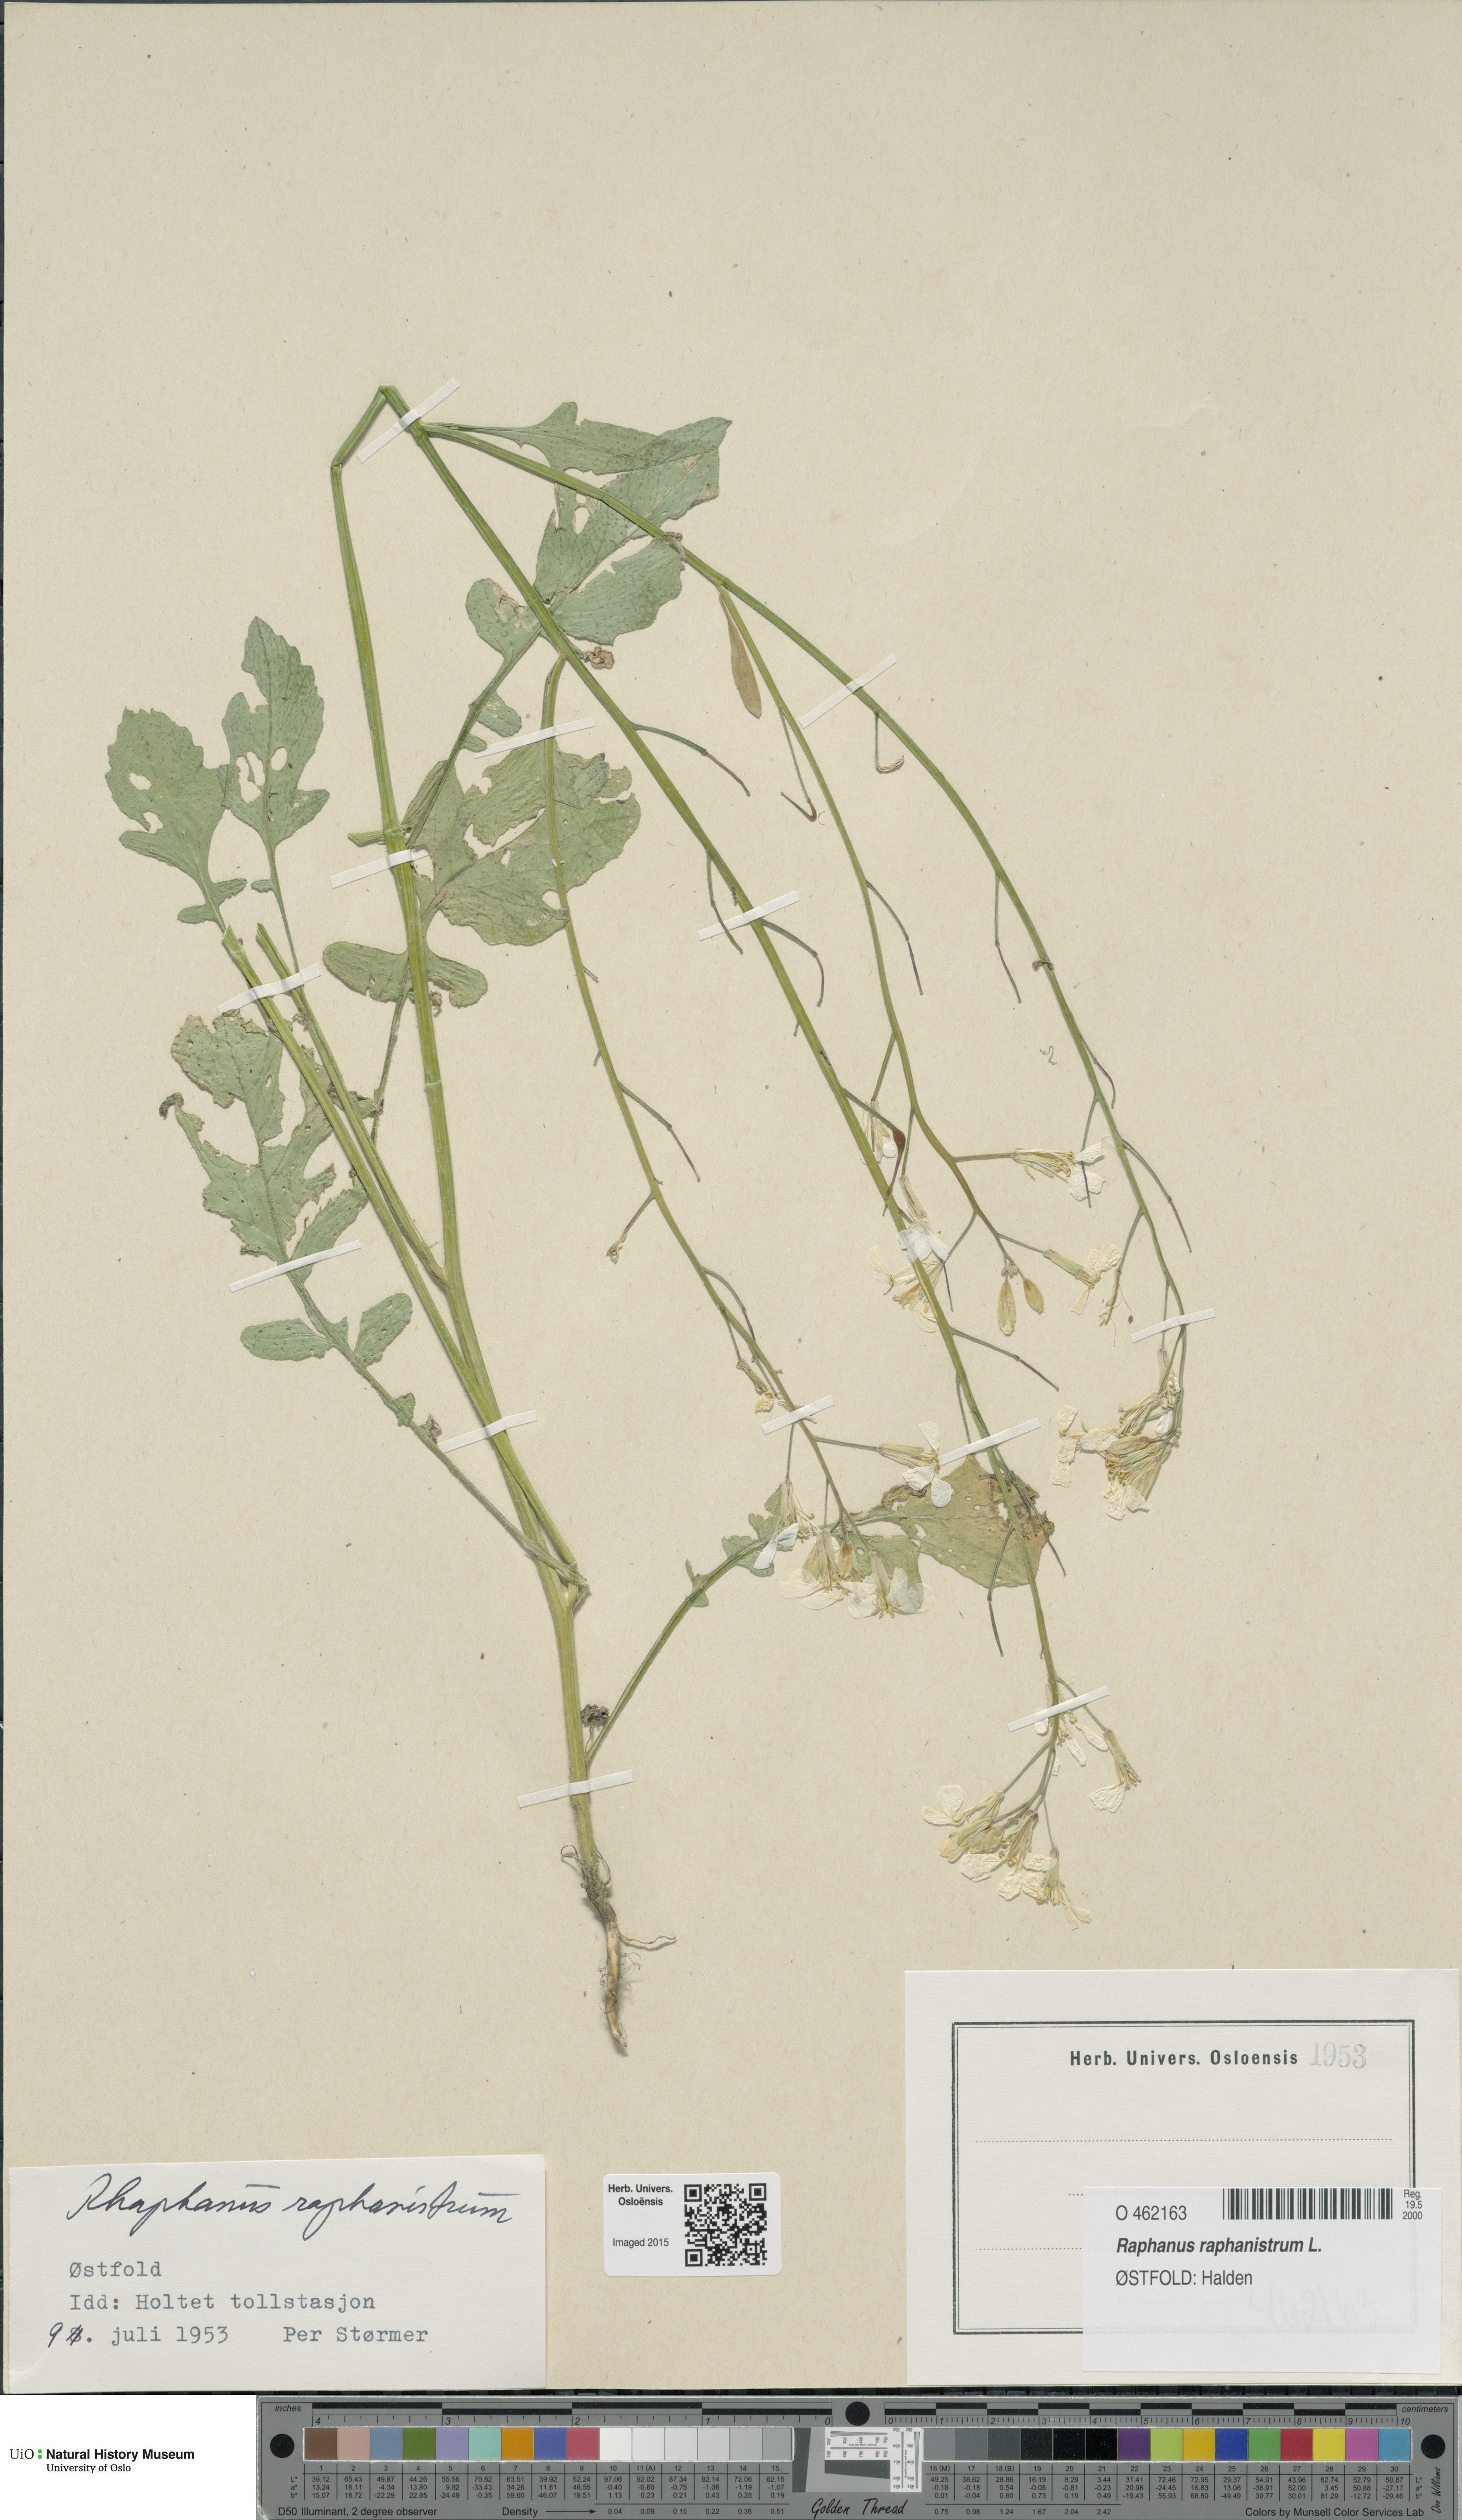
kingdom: Plantae
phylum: Tracheophyta
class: Magnoliopsida
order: Brassicales
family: Brassicaceae
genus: Raphanus
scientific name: Raphanus raphanistrum
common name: Wild radish
